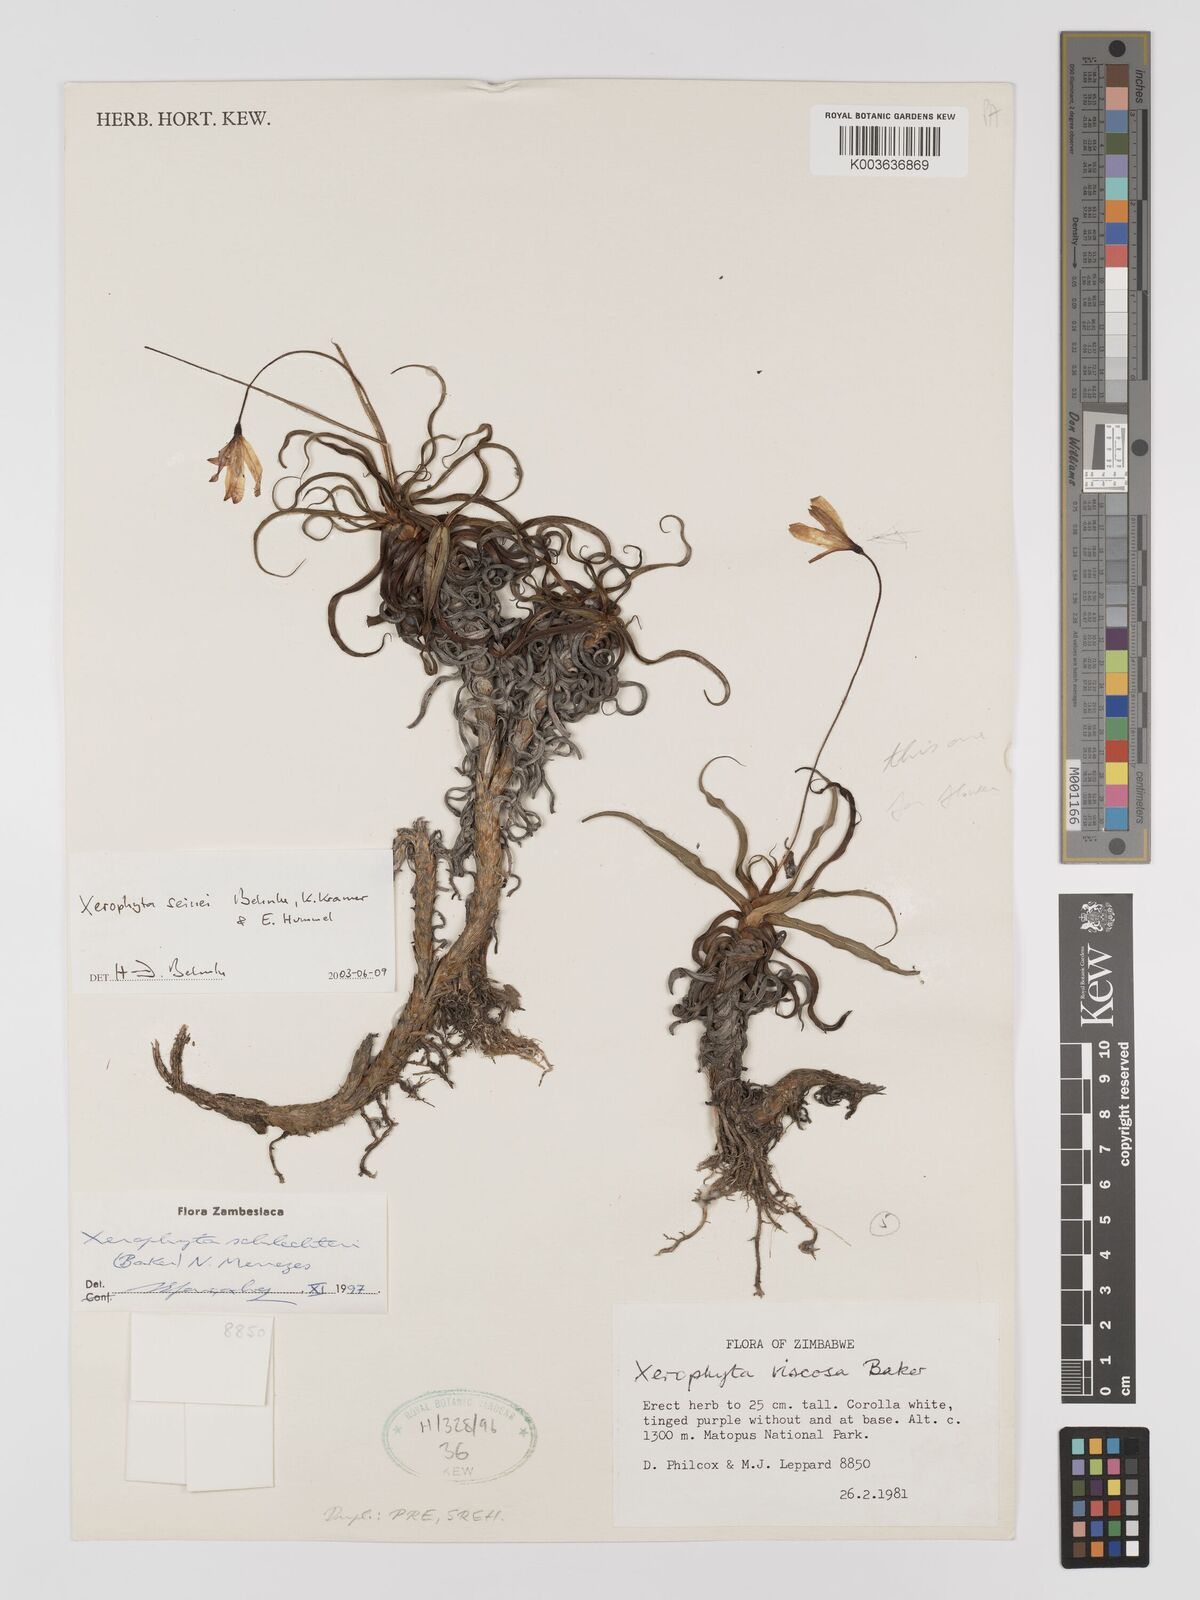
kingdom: Plantae
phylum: Tracheophyta
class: Liliopsida
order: Pandanales
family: Velloziaceae
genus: Xerophyta
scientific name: Xerophyta seinei
